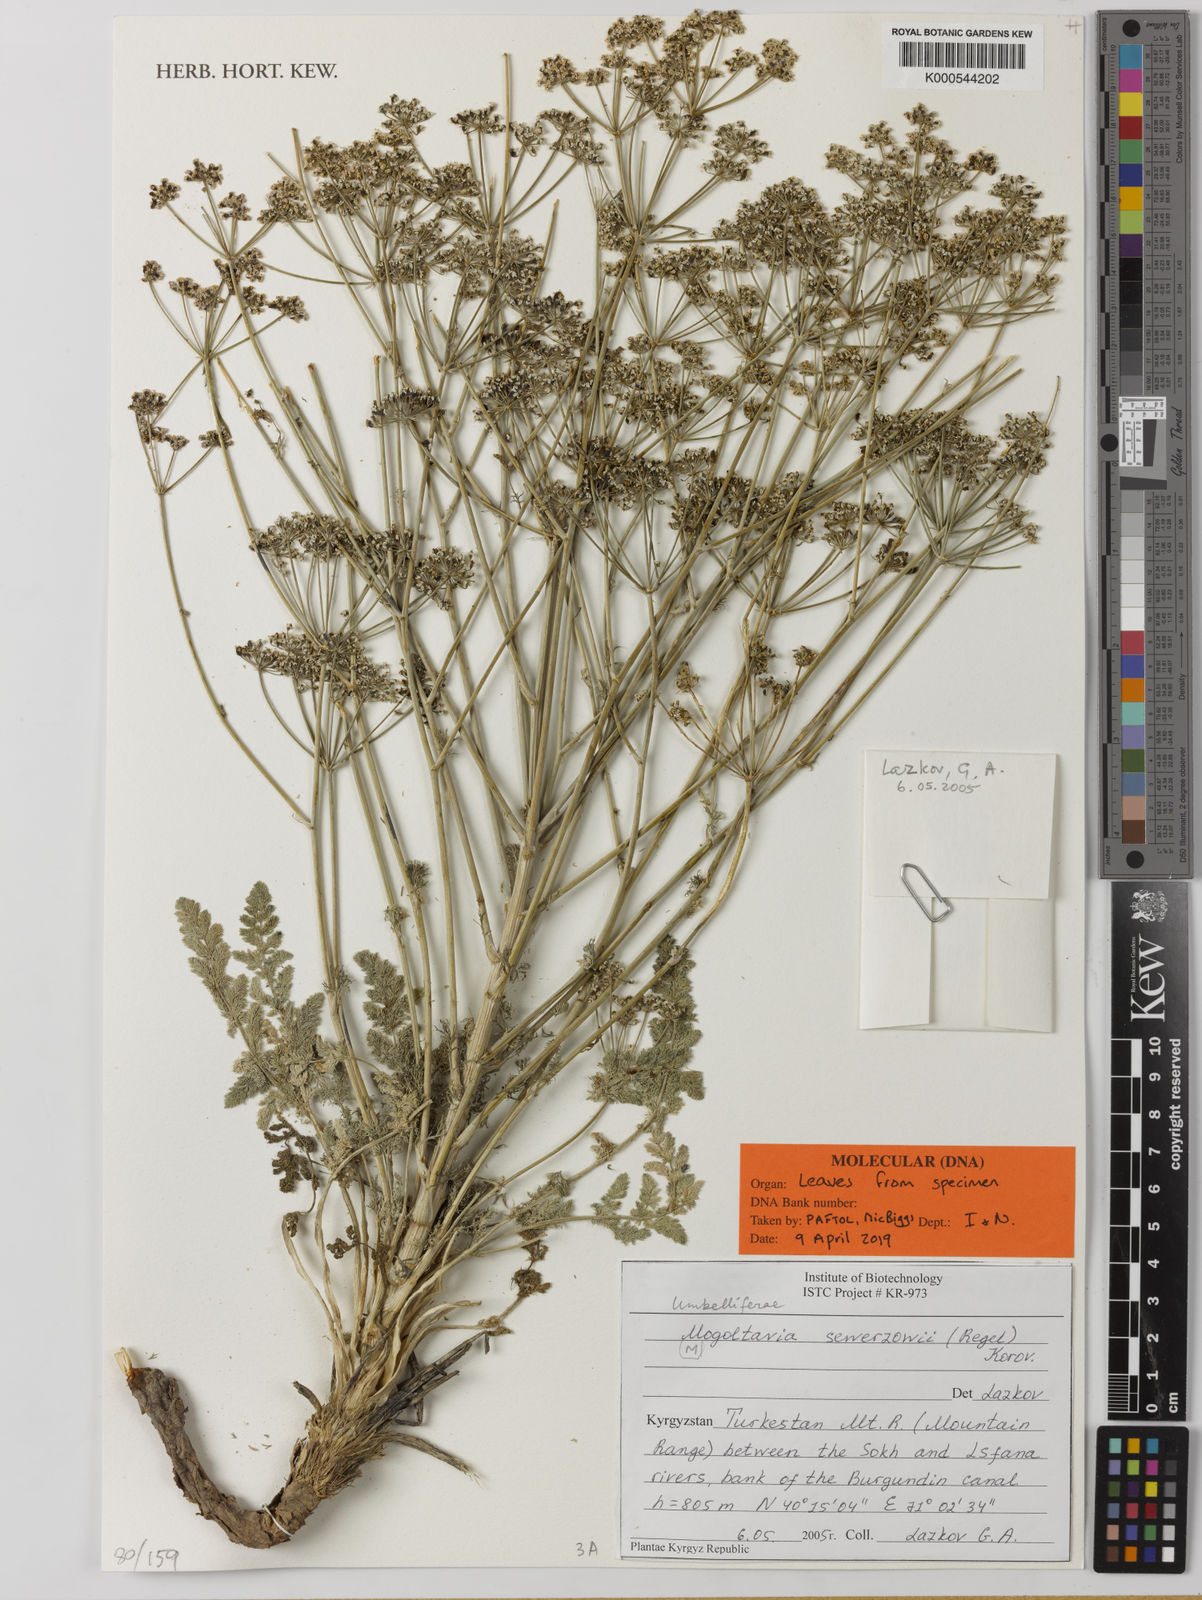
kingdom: Plantae
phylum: Tracheophyta
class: Magnoliopsida
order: Apiales
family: Apiaceae
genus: Mogoltavia
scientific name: Mogoltavia sewerzowii
